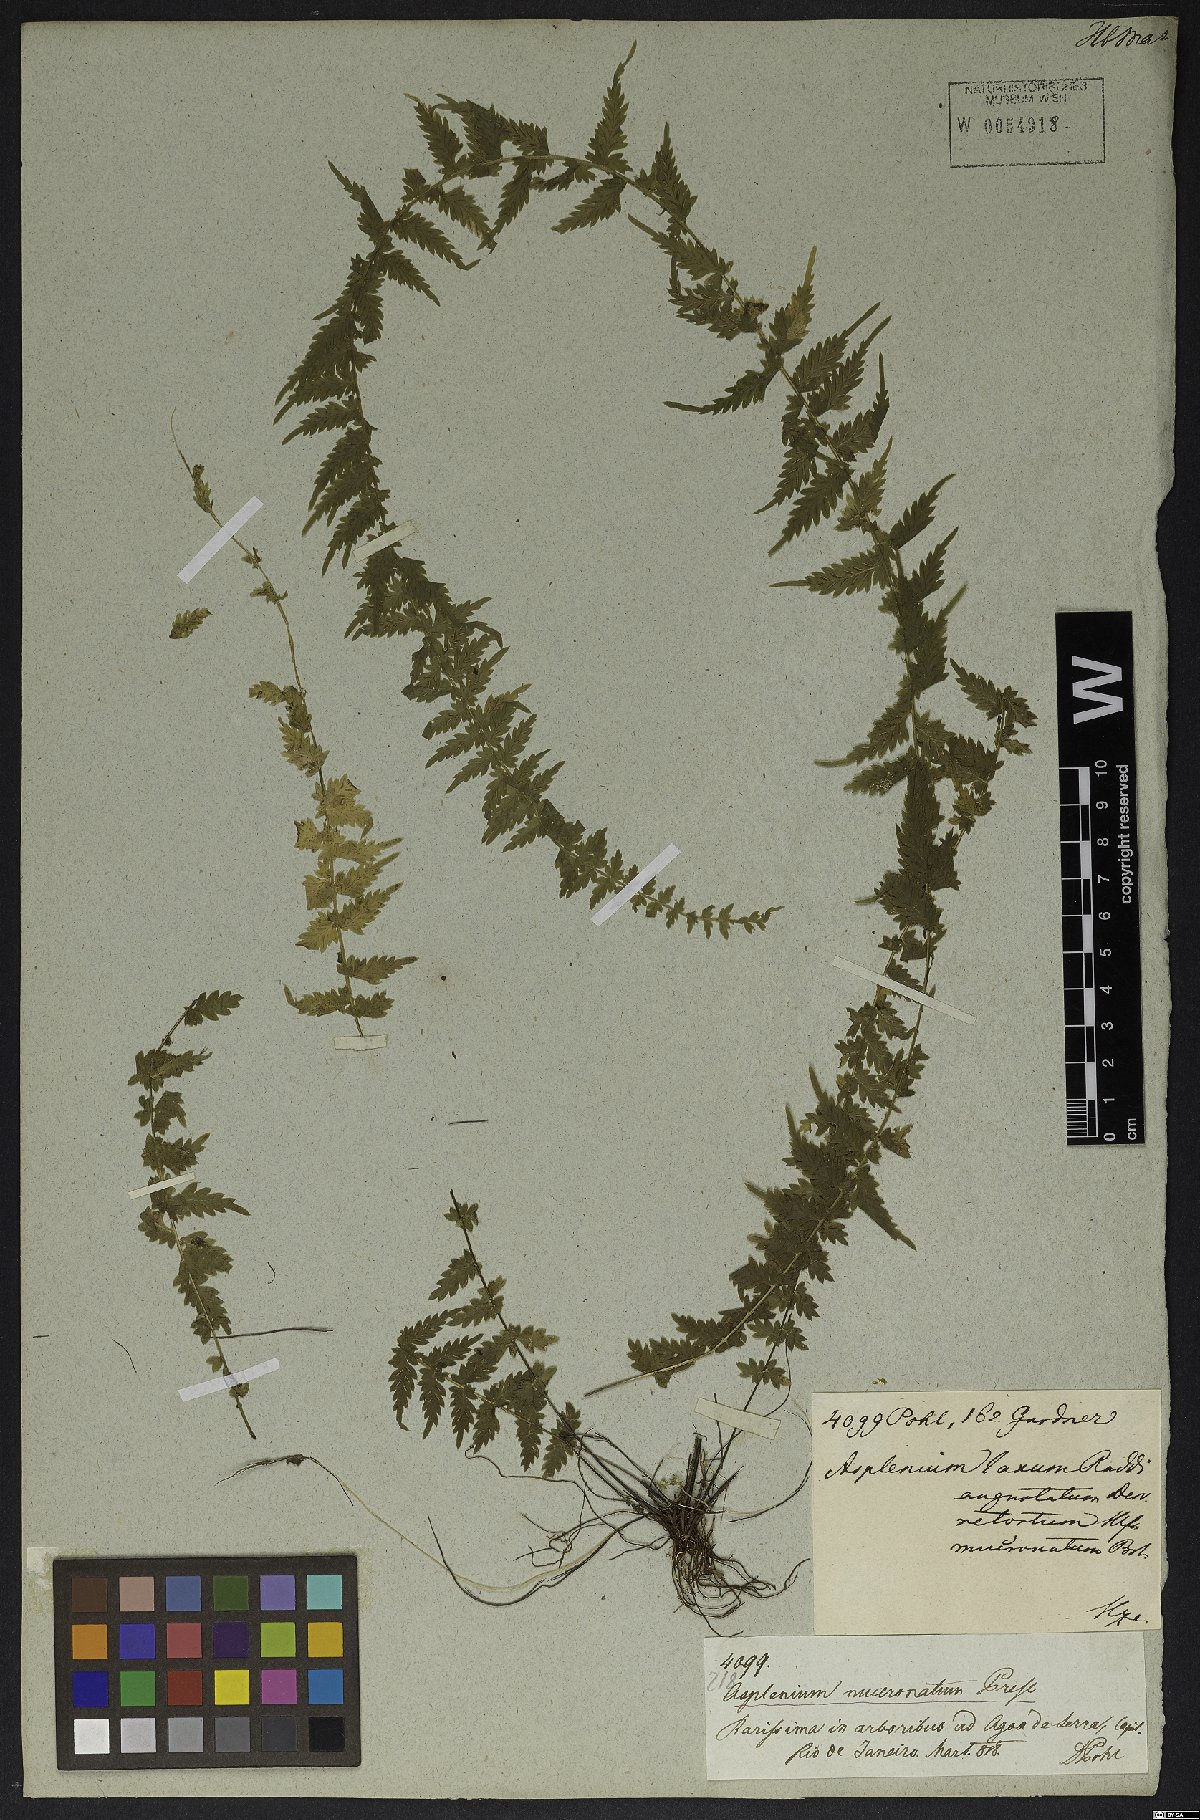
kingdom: Plantae
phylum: Tracheophyta
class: Polypodiopsida
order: Polypodiales
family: Aspleniaceae
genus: Asplenium
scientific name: Asplenium mucronatum
